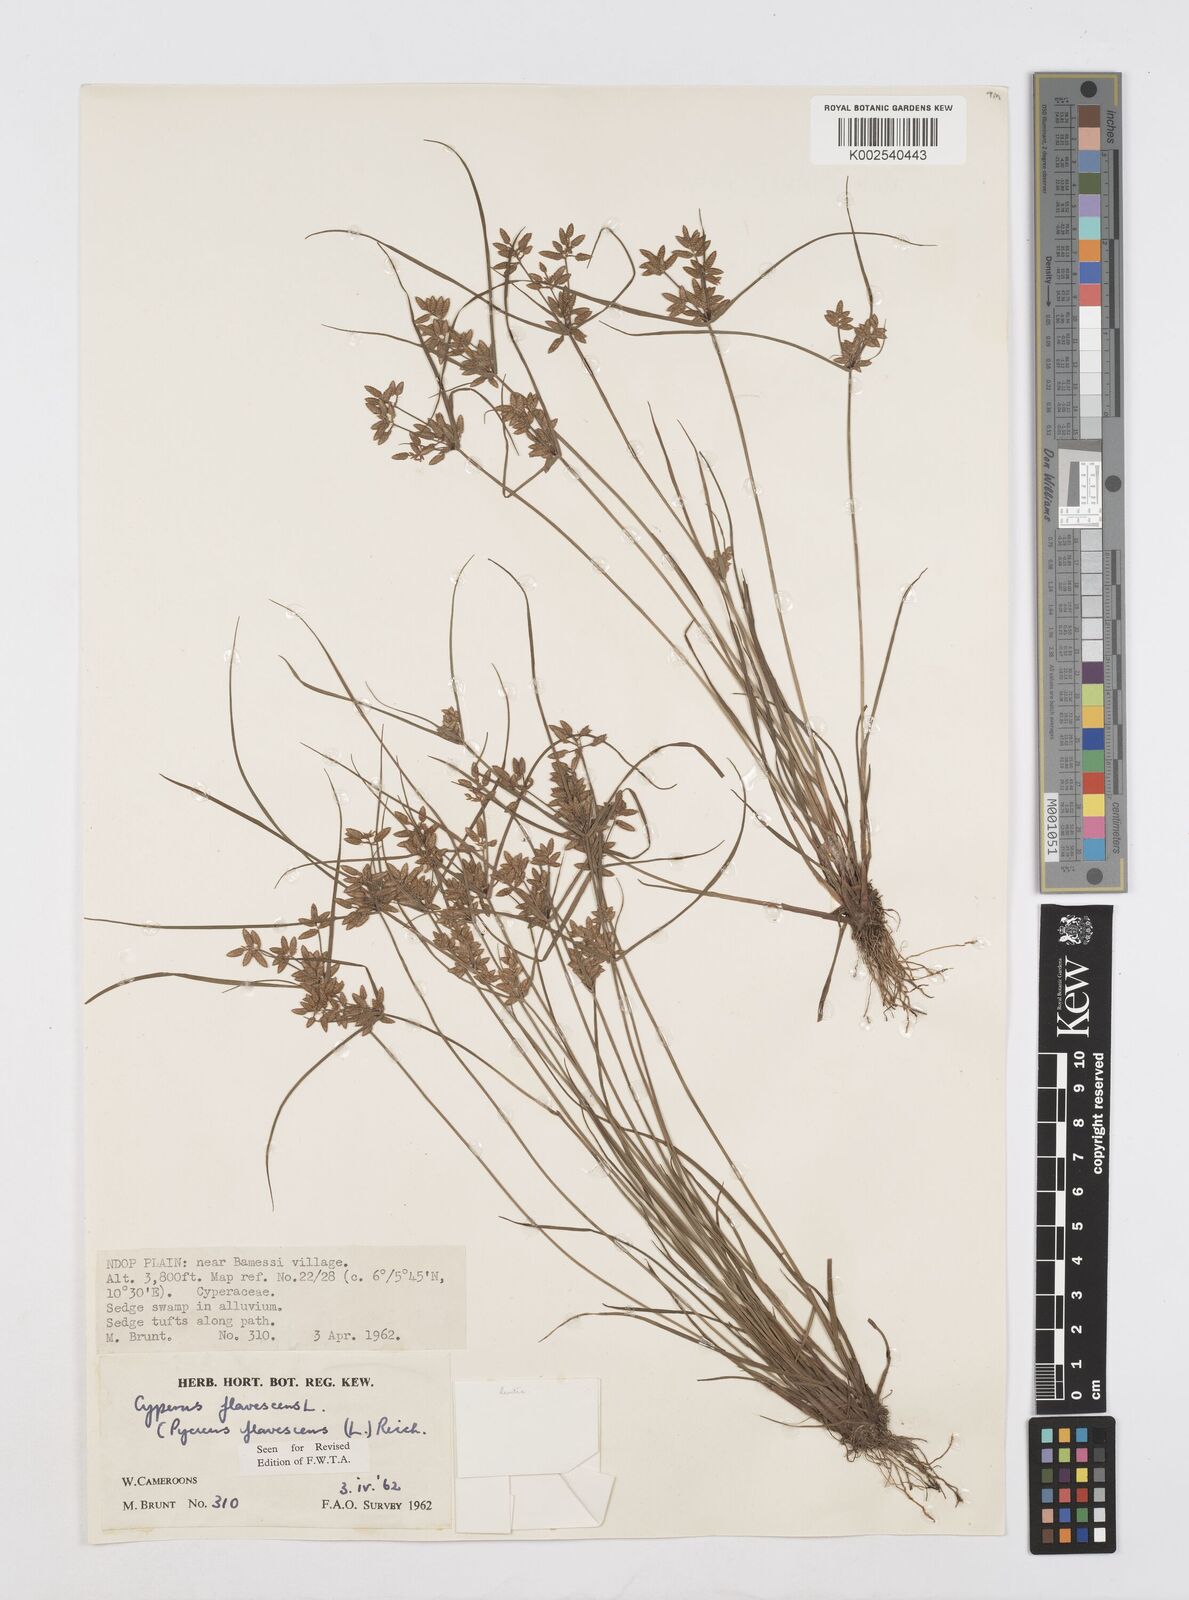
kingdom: Plantae
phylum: Tracheophyta
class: Liliopsida
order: Poales
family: Cyperaceae
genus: Cyperus
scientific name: Cyperus flavescens
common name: Yellow galingale
